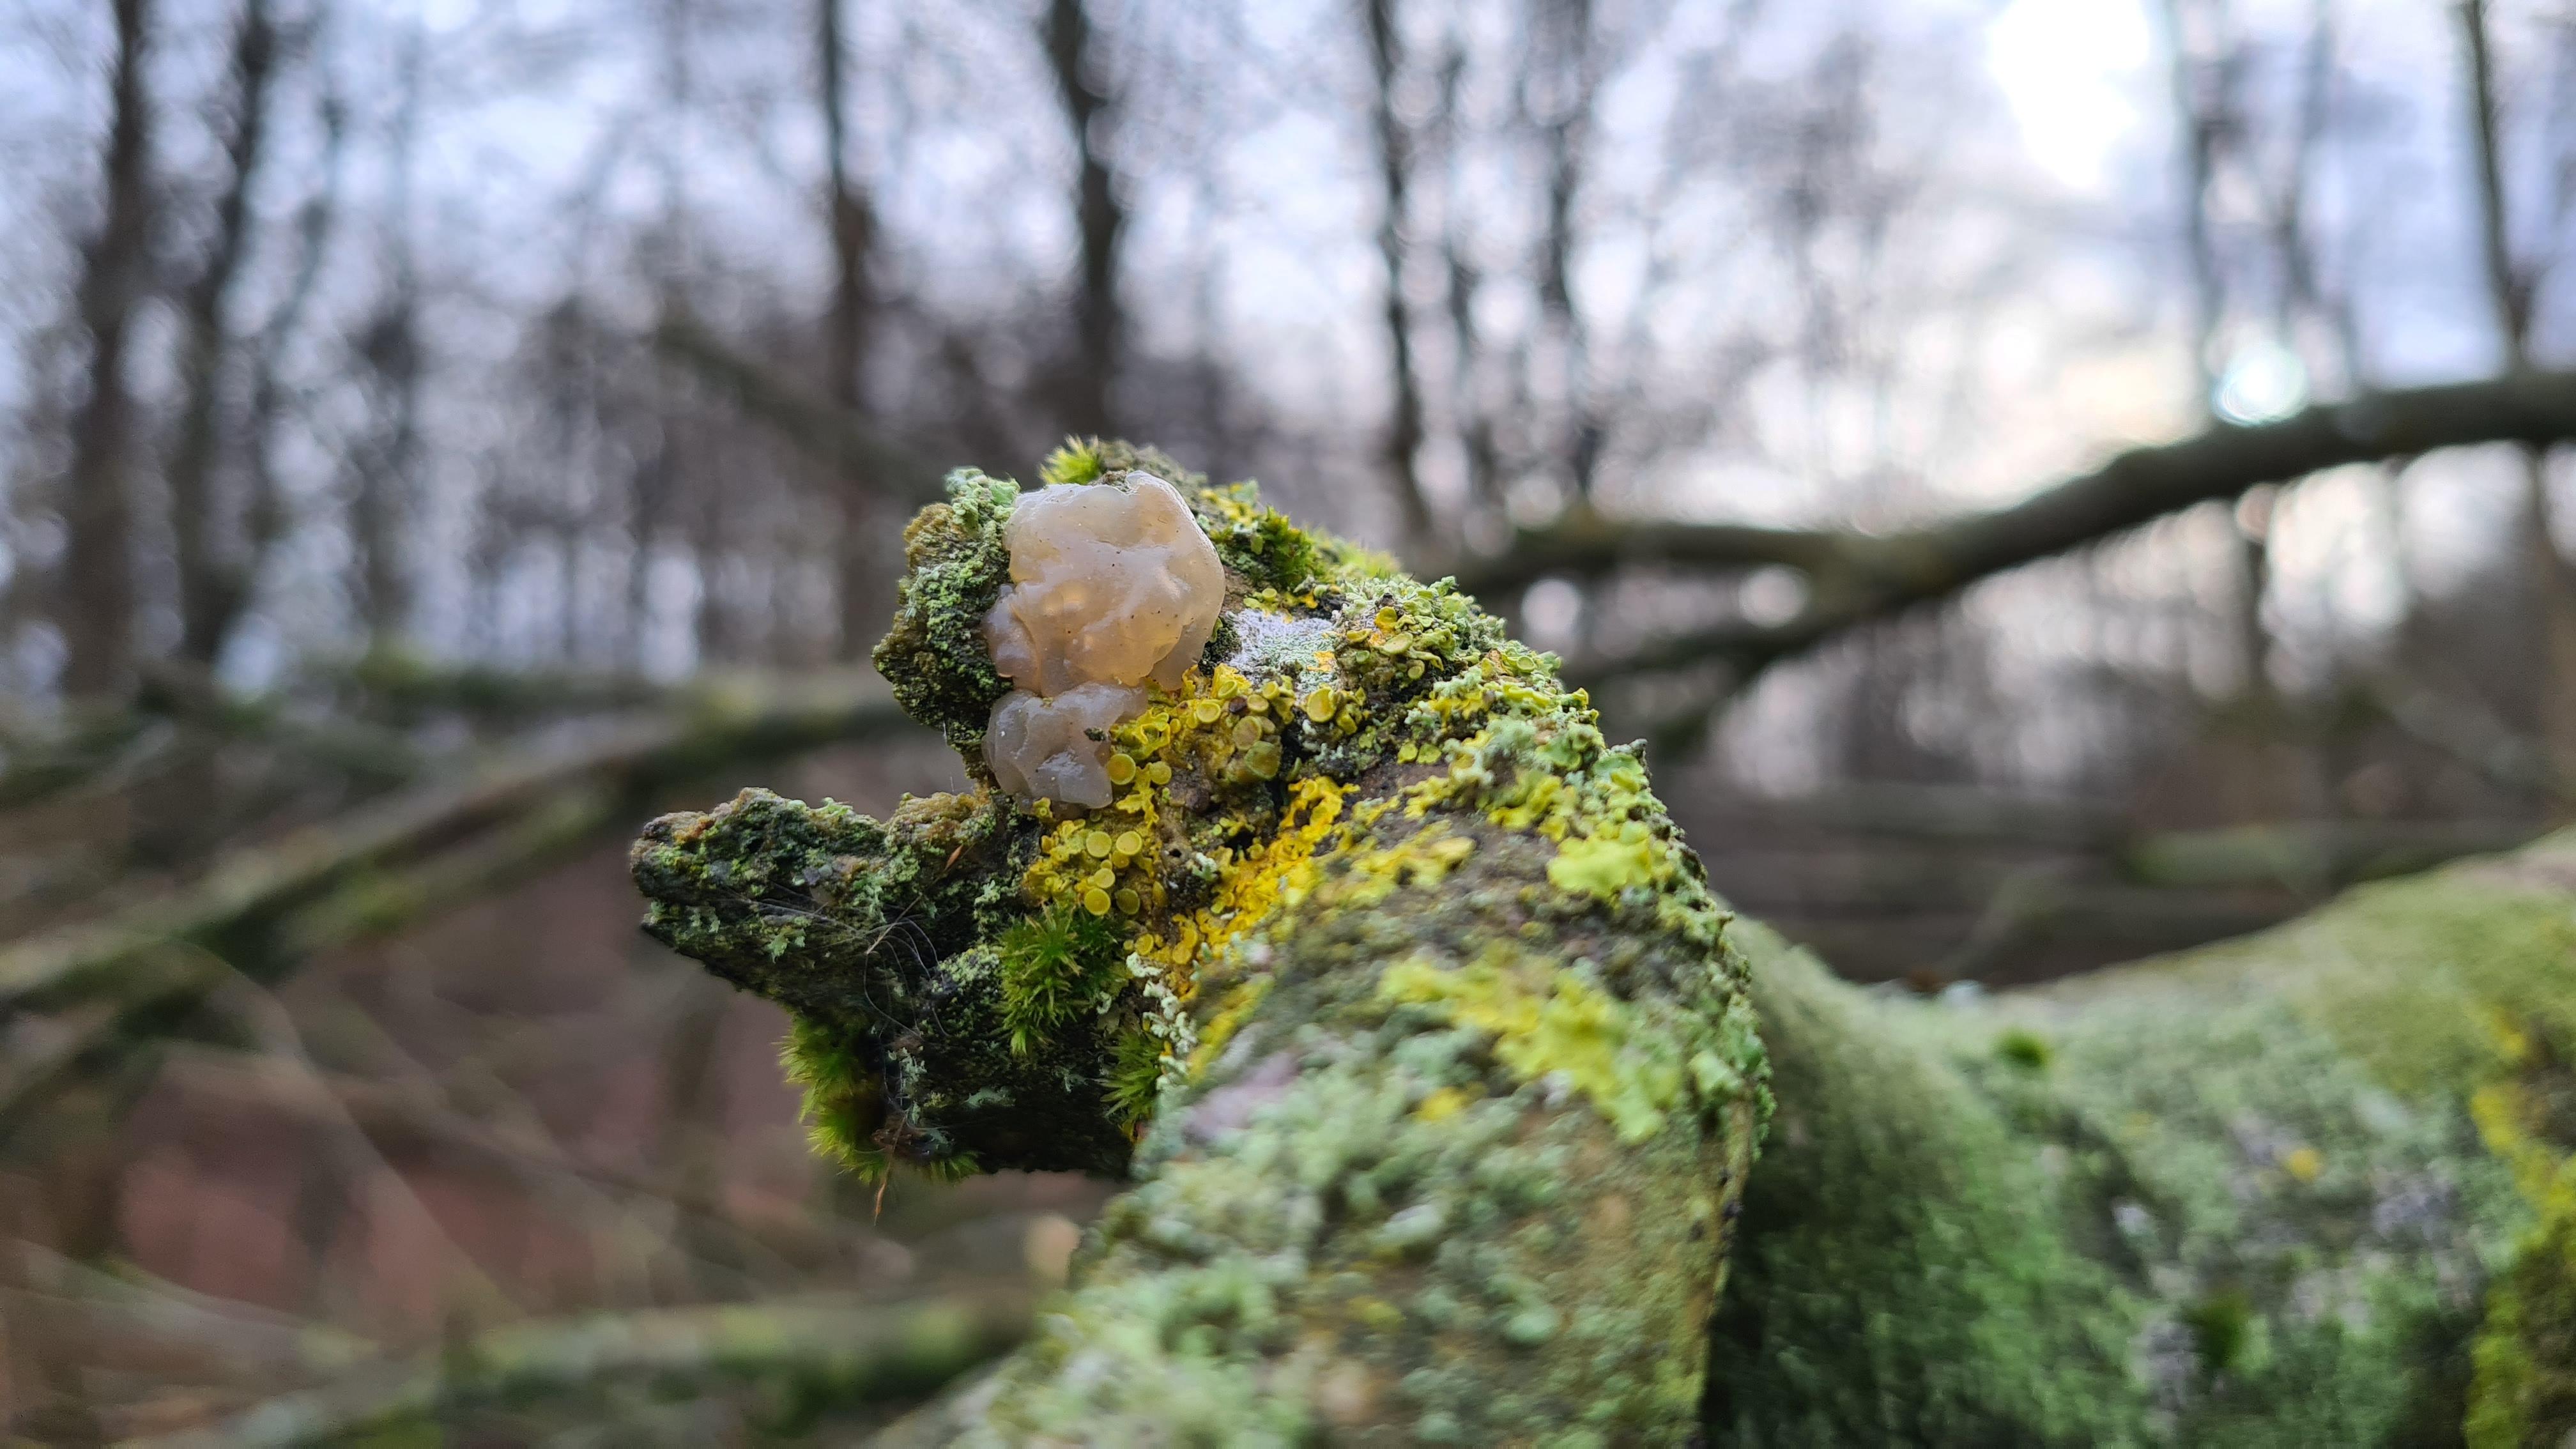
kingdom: Fungi
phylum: Basidiomycota
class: Agaricomycetes
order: Auriculariales
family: Hyaloriaceae
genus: Myxarium
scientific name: Myxarium nucleatum
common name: klar bævretop
